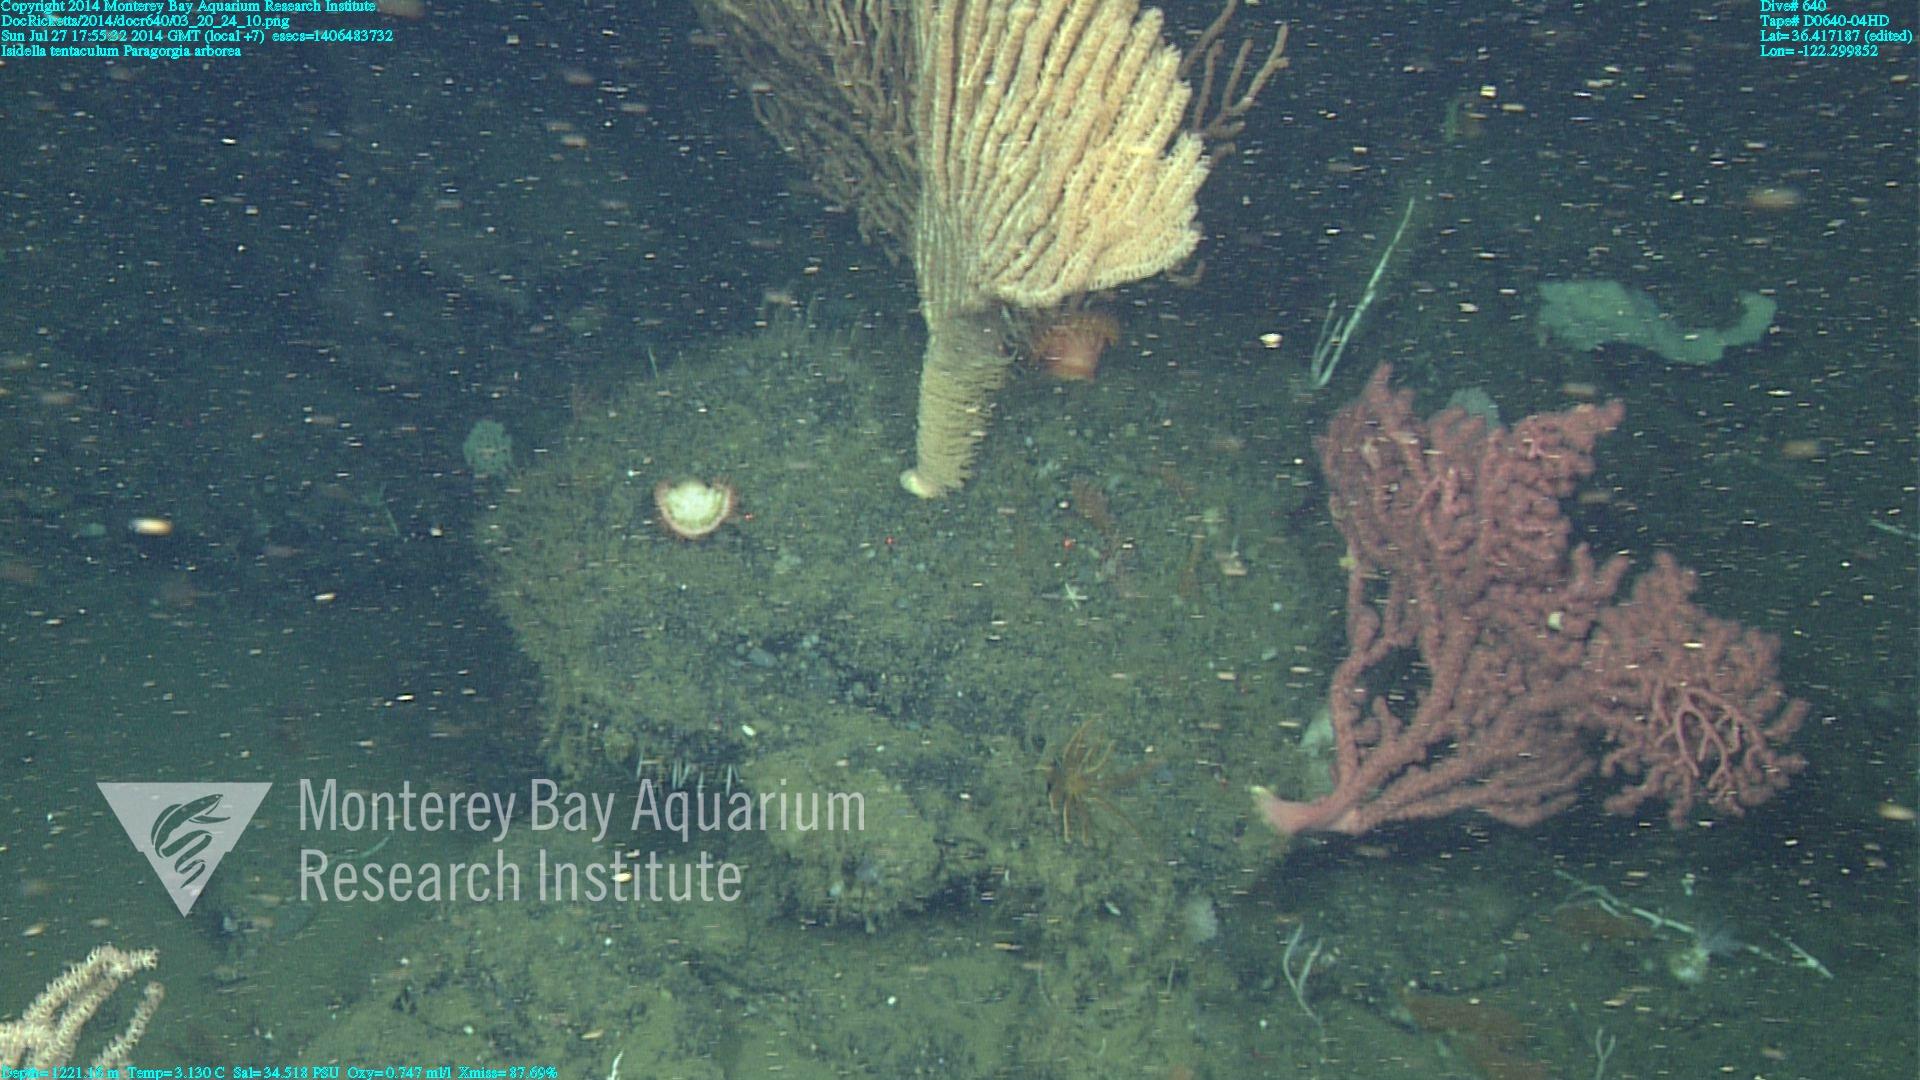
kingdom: Animalia
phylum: Cnidaria
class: Anthozoa
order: Scleralcyonacea
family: Coralliidae
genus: Paragorgia
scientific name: Paragorgia arborea
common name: Bubble gum coral
